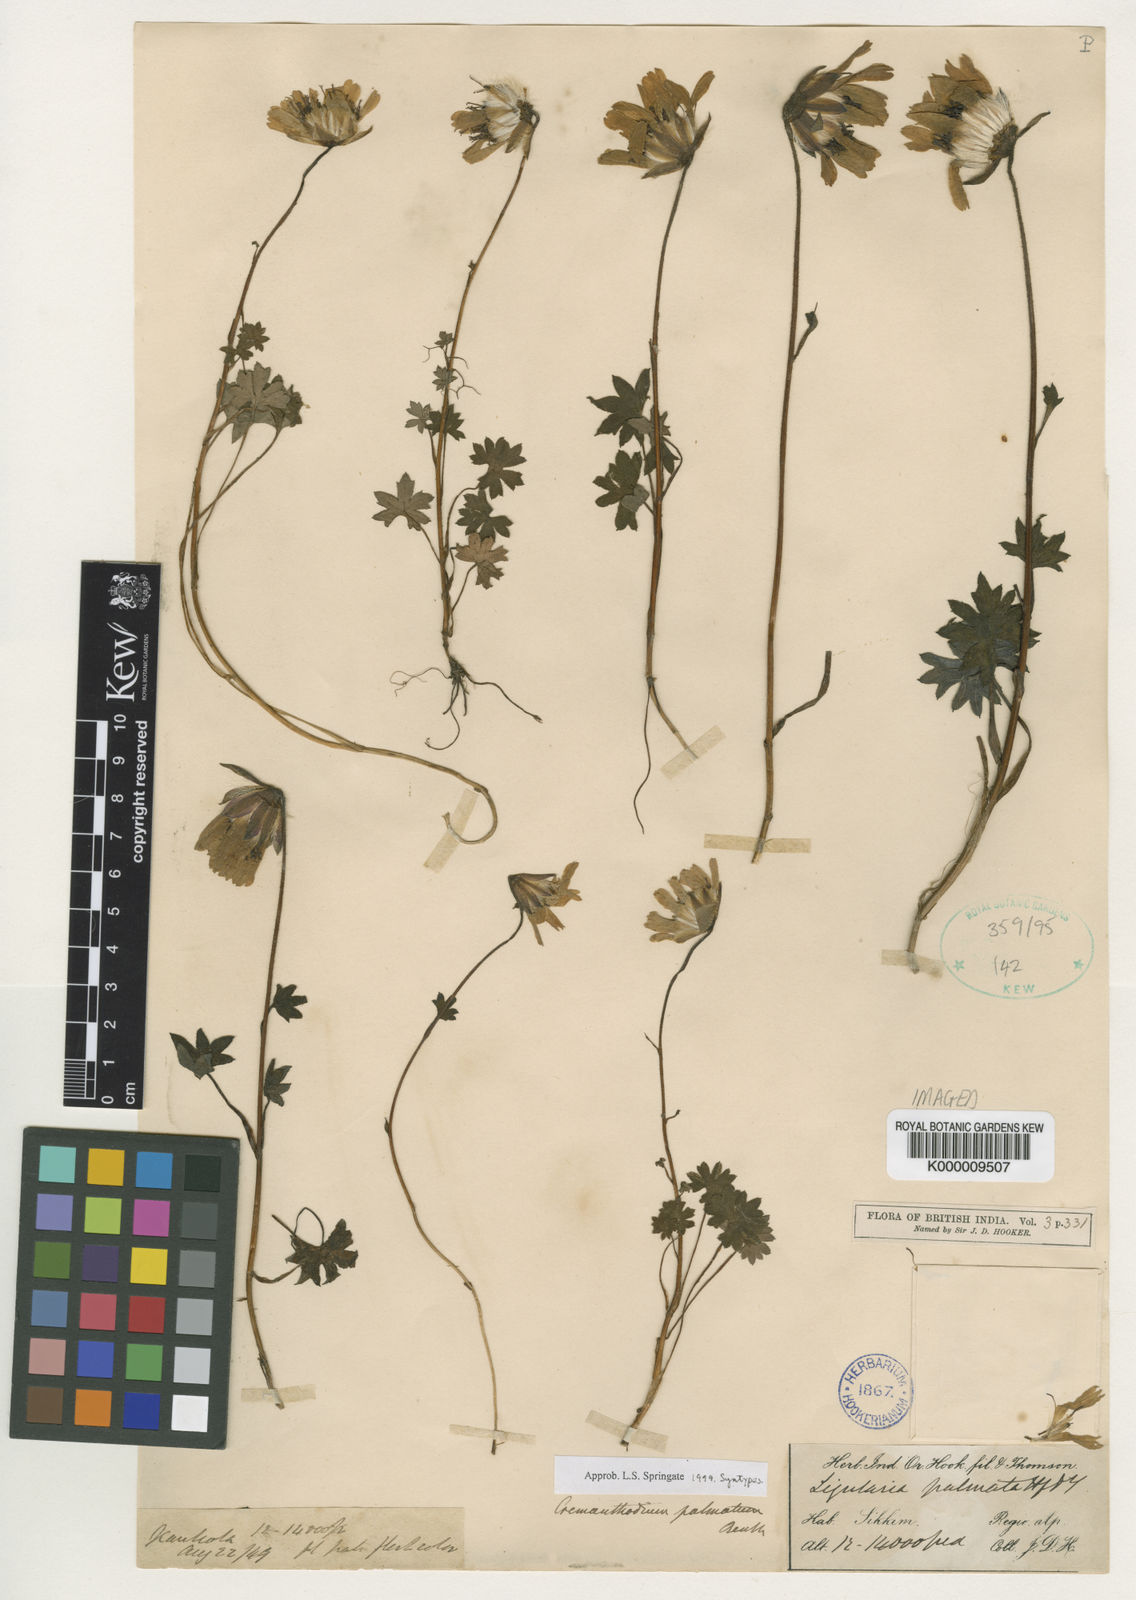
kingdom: Plantae
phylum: Tracheophyta
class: Magnoliopsida
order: Asterales
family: Asteraceae
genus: Cremanthodium
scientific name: Cremanthodium palmatum
